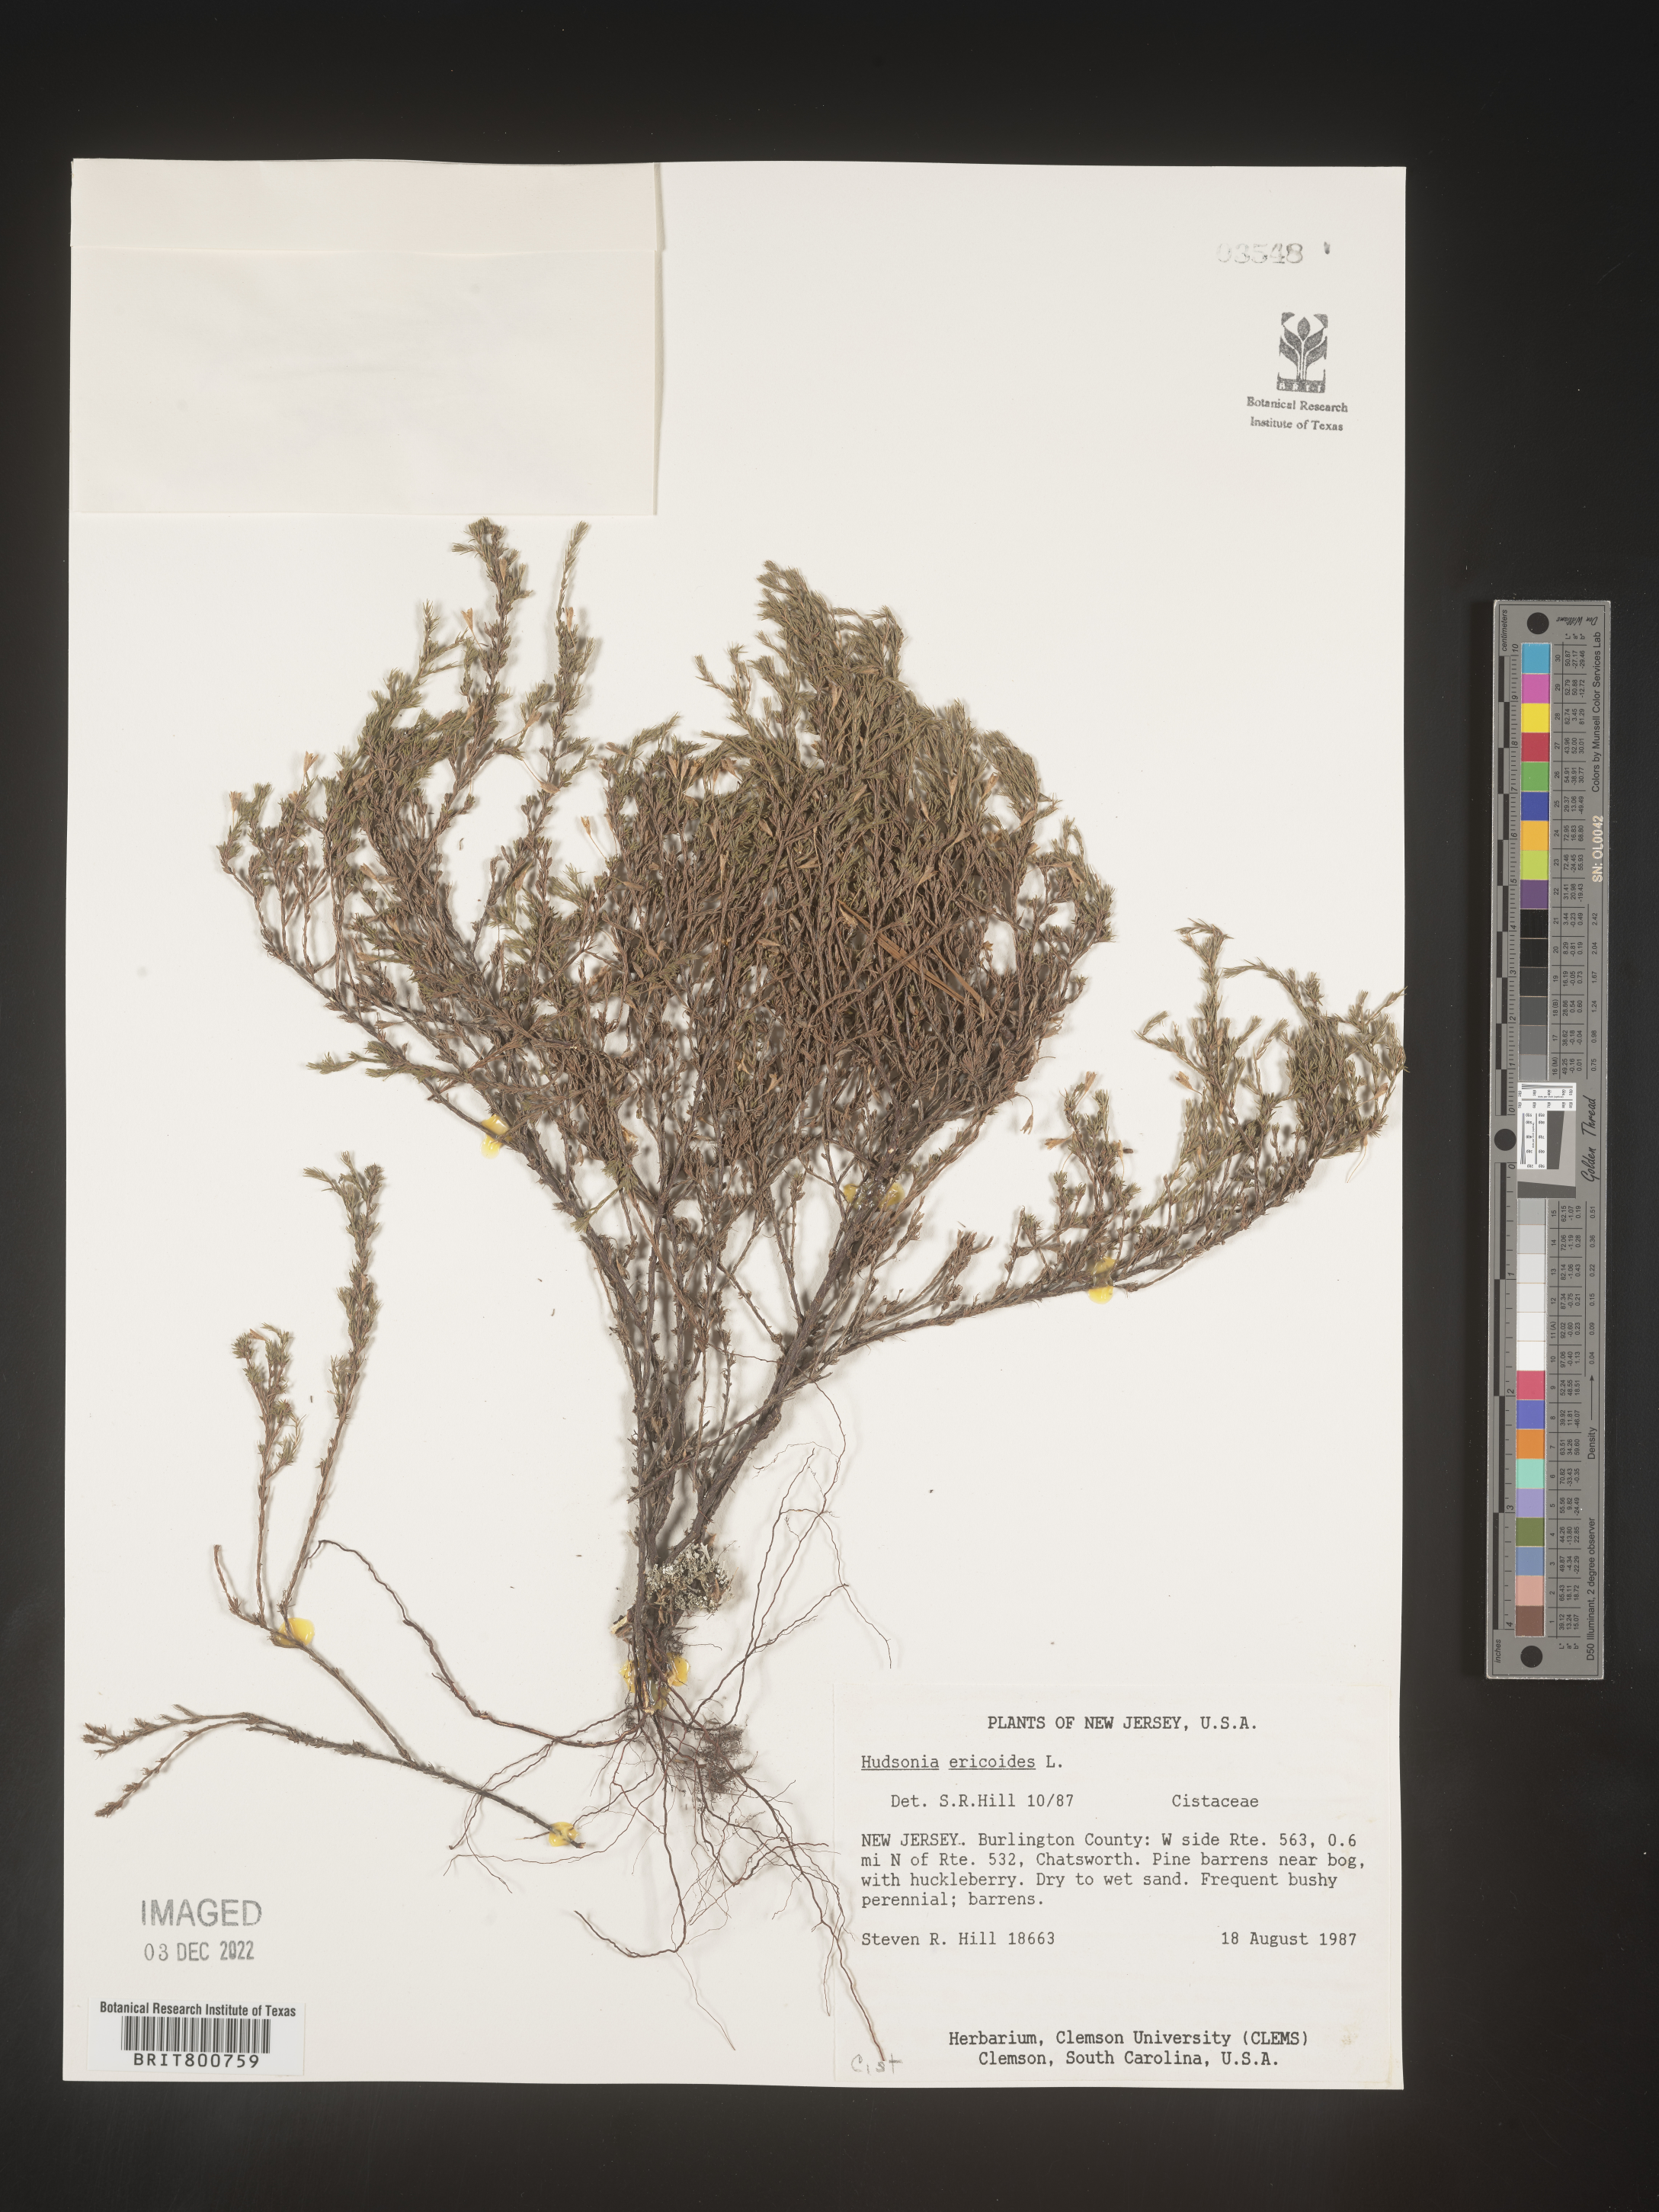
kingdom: Plantae
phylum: Tracheophyta
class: Magnoliopsida
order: Malvales
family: Cistaceae
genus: Hudsonia
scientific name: Hudsonia ericoides
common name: Golden-heather
